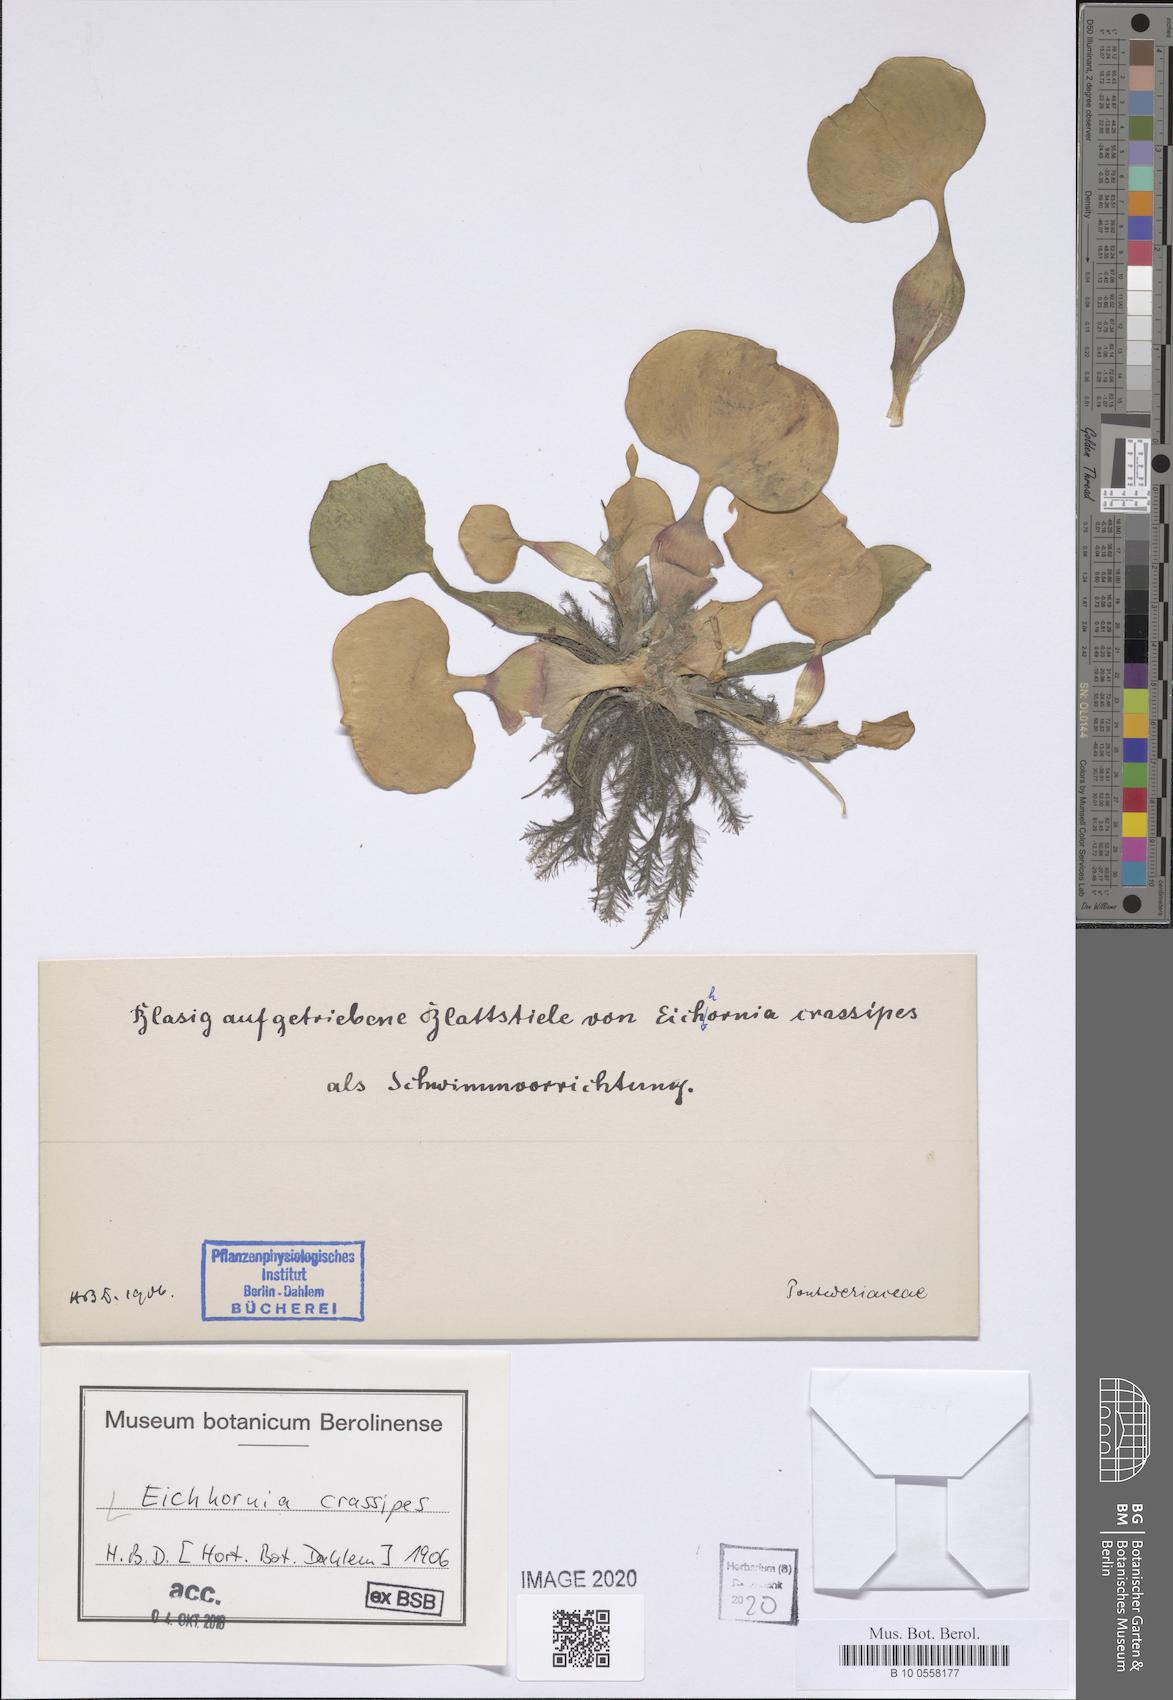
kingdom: Plantae
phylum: Tracheophyta
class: Liliopsida
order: Commelinales
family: Pontederiaceae
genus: Pontederia
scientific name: Pontederia crassipes
